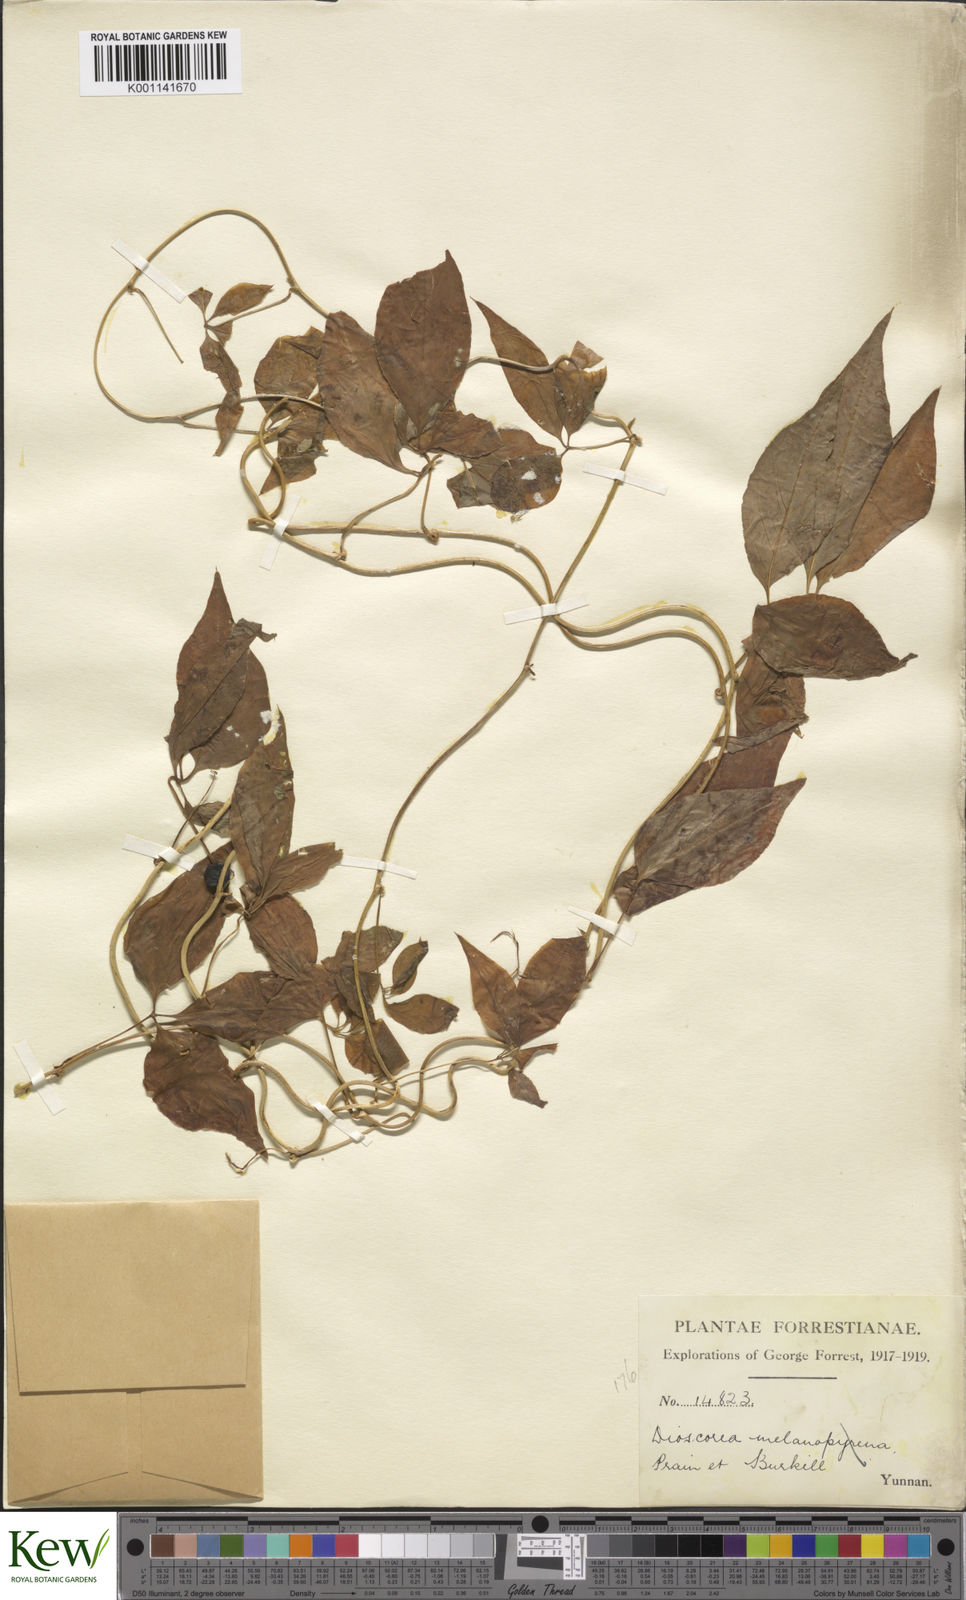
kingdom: Plantae
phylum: Tracheophyta
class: Liliopsida
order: Dioscoreales
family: Dioscoreaceae
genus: Dioscorea
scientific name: Dioscorea melanophyma
